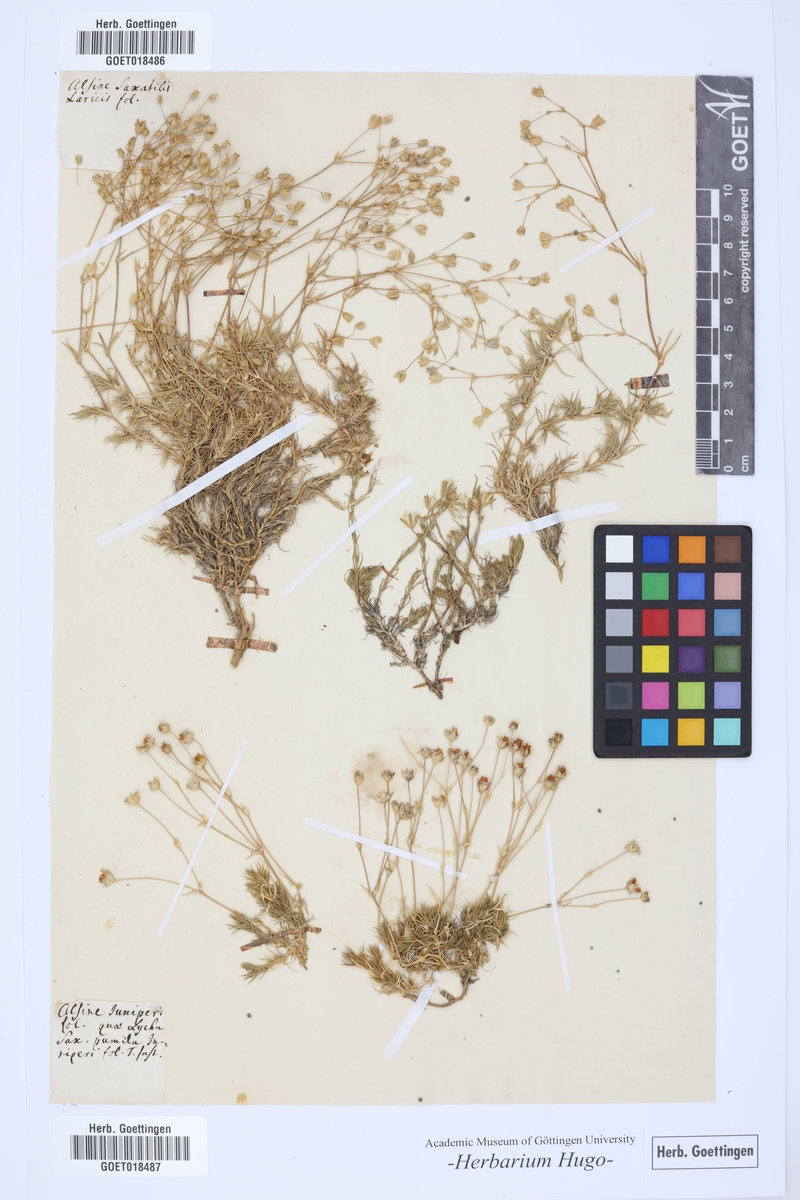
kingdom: Plantae
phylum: Tracheophyta
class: Magnoliopsida
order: Caryophyllales
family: Caryophyllaceae
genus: Alsine
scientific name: Alsine
